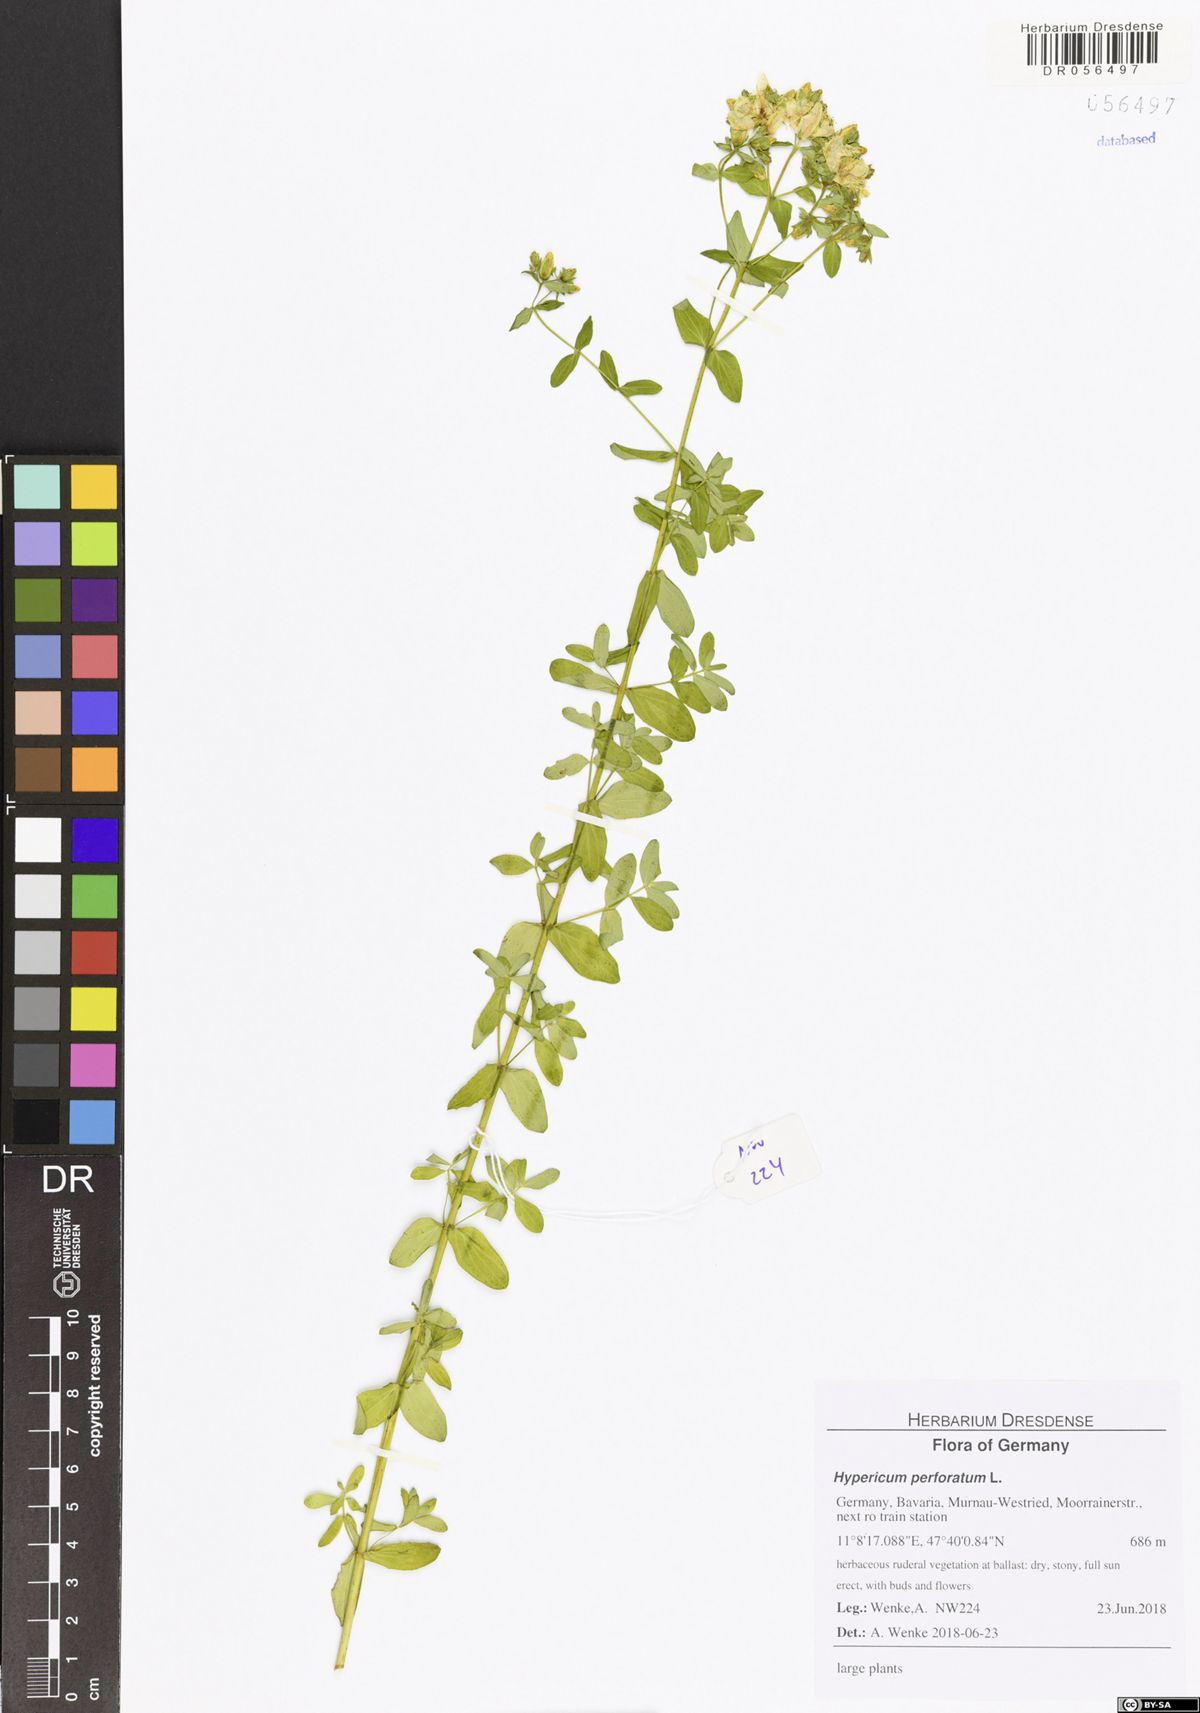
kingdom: Plantae
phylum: Tracheophyta
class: Magnoliopsida
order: Malpighiales
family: Hypericaceae
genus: Hypericum
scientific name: Hypericum perforatum
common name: Common st. johnswort
